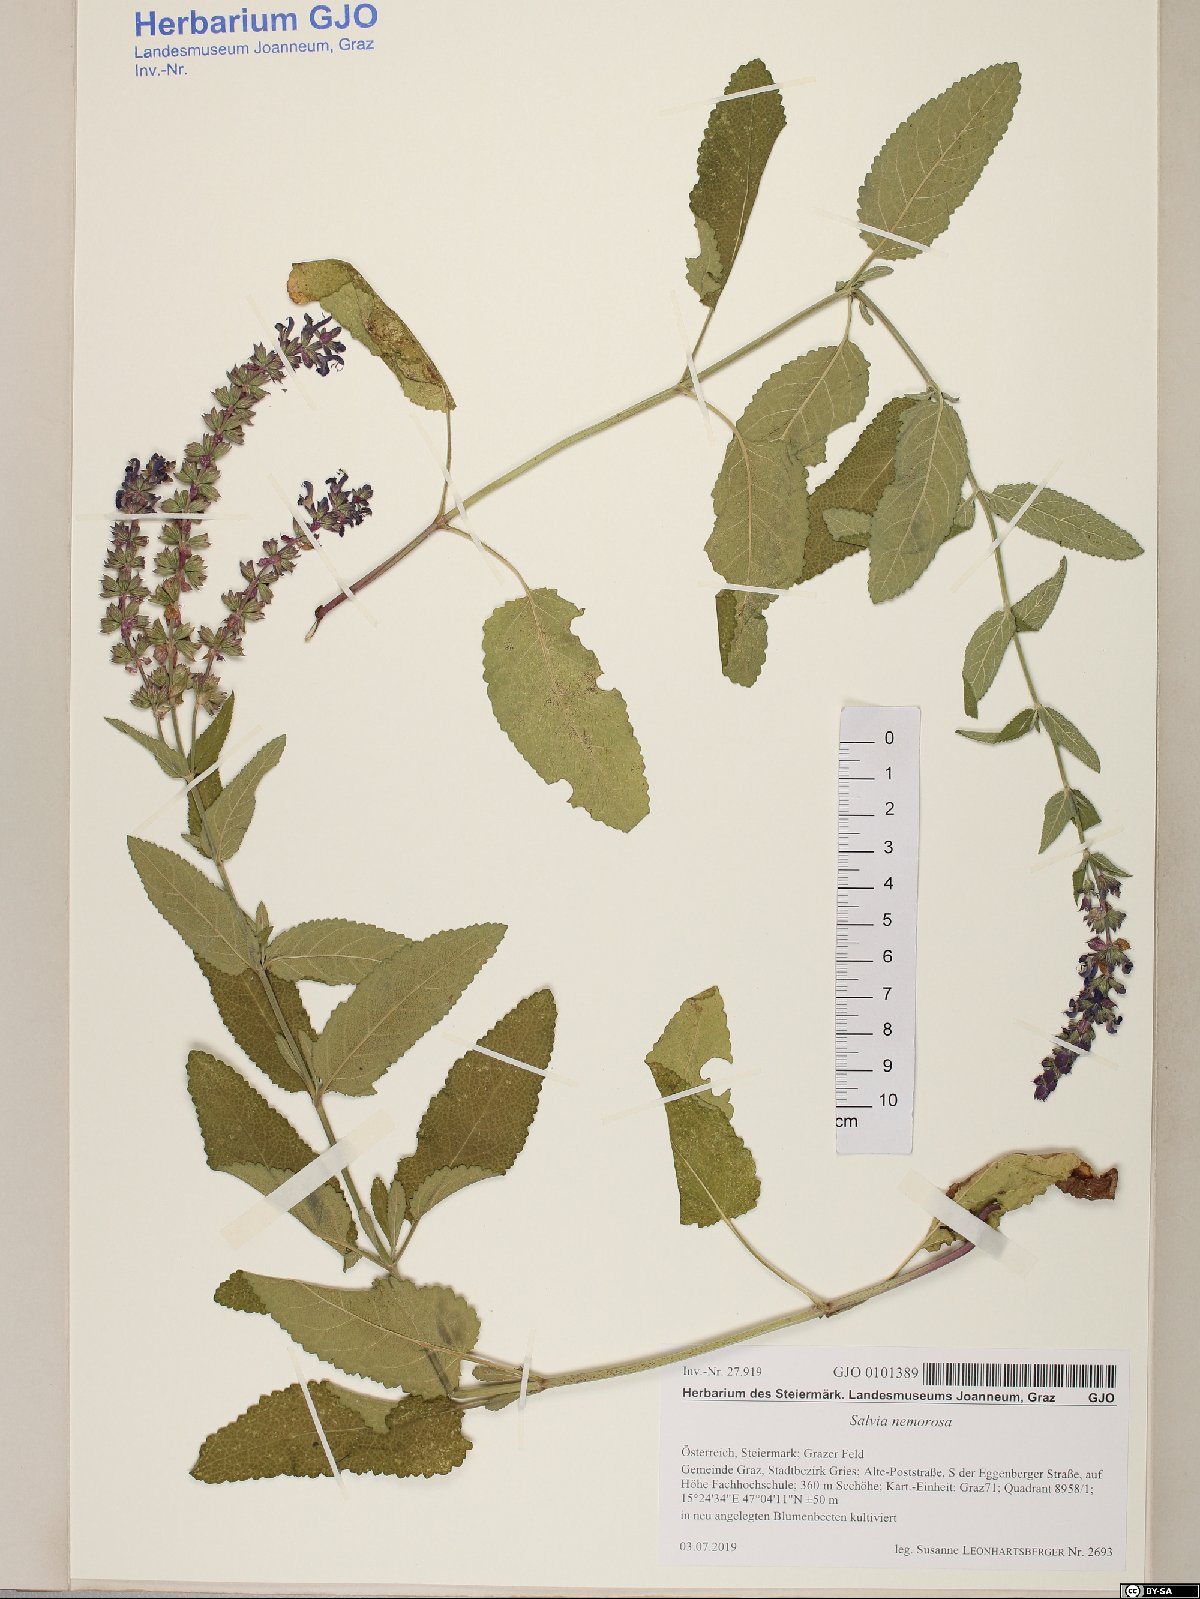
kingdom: Plantae
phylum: Tracheophyta
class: Magnoliopsida
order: Lamiales
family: Lamiaceae
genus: Salvia
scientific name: Salvia nemorosa
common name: Balkan clary
